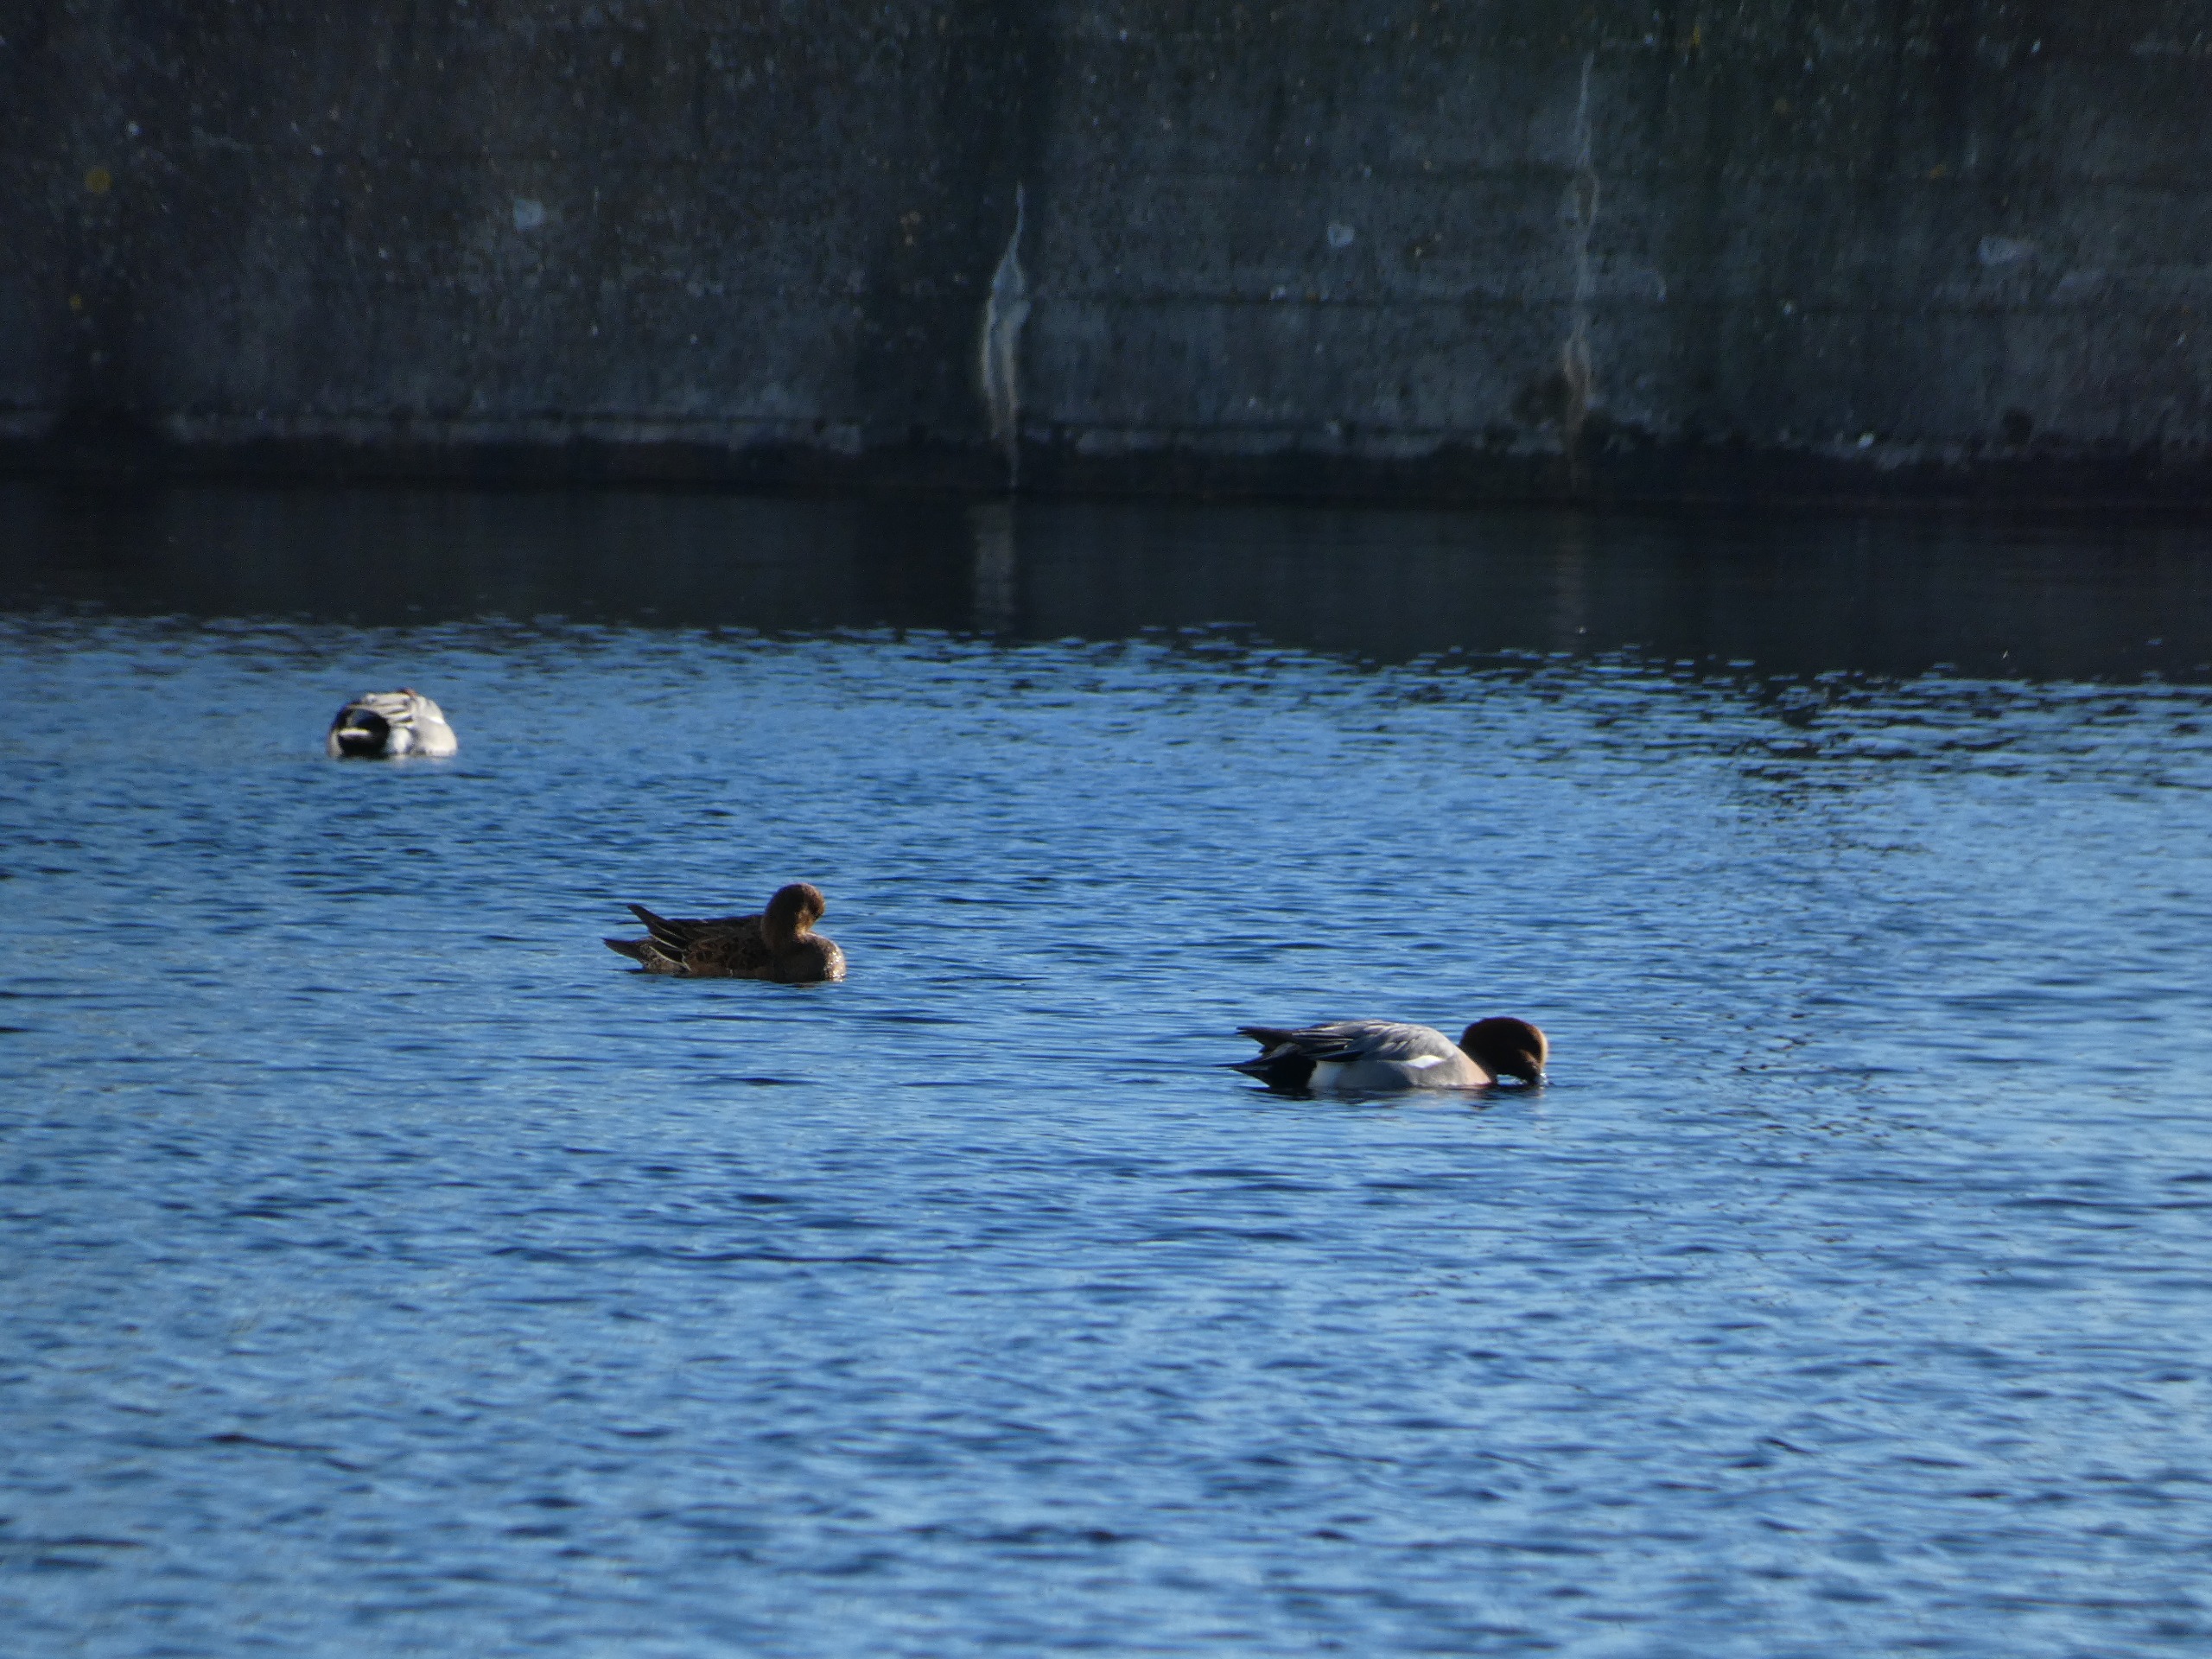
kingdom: Animalia
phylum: Chordata
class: Aves
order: Anseriformes
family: Anatidae
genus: Mareca
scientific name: Mareca penelope
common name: Pibeand
